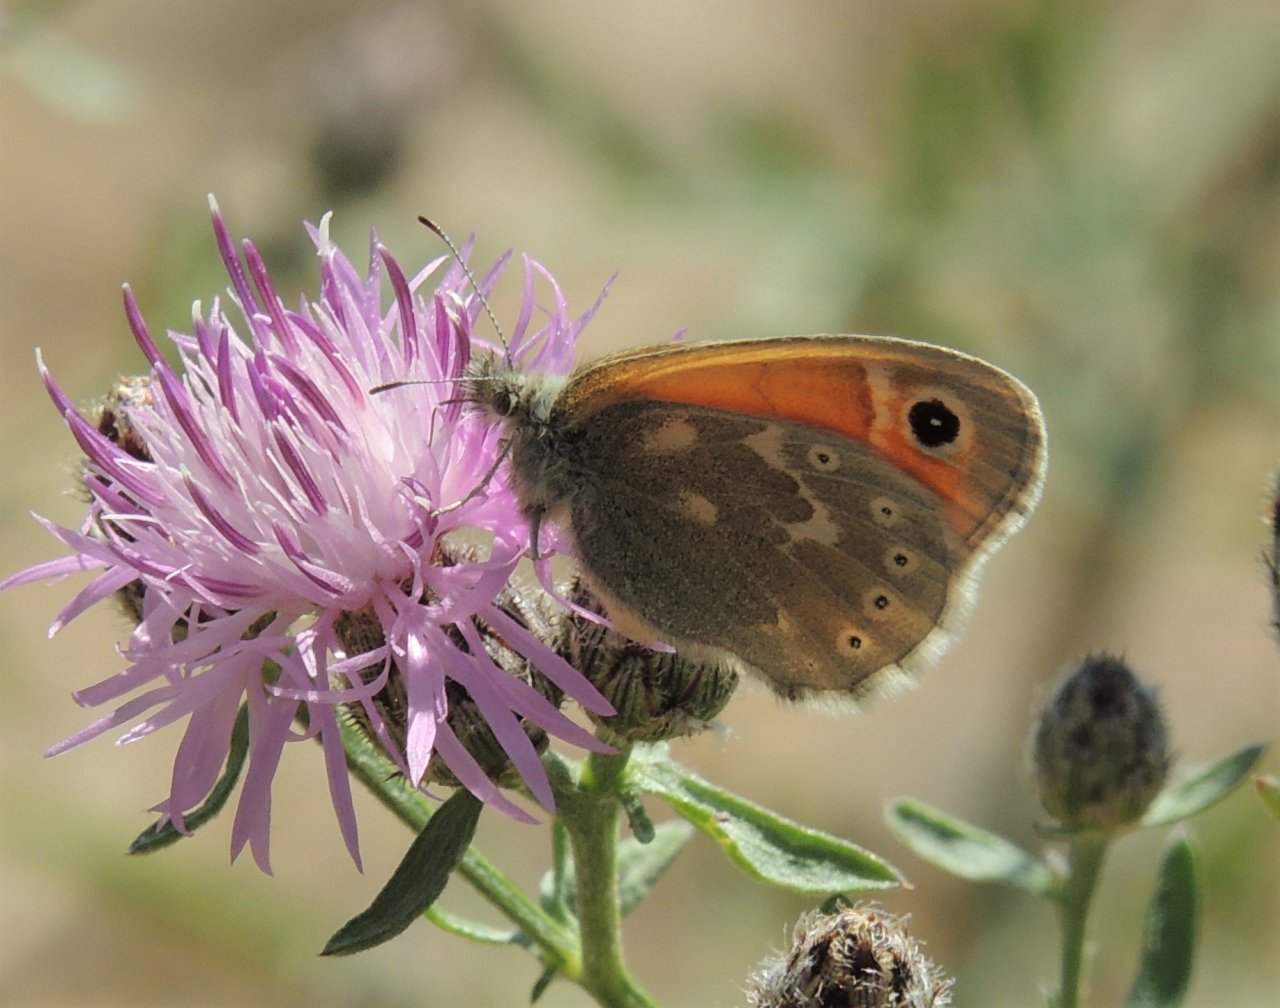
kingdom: Animalia
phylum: Arthropoda
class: Insecta
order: Lepidoptera
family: Nymphalidae
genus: Coenonympha
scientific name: Coenonympha tullia
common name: Large Heath
